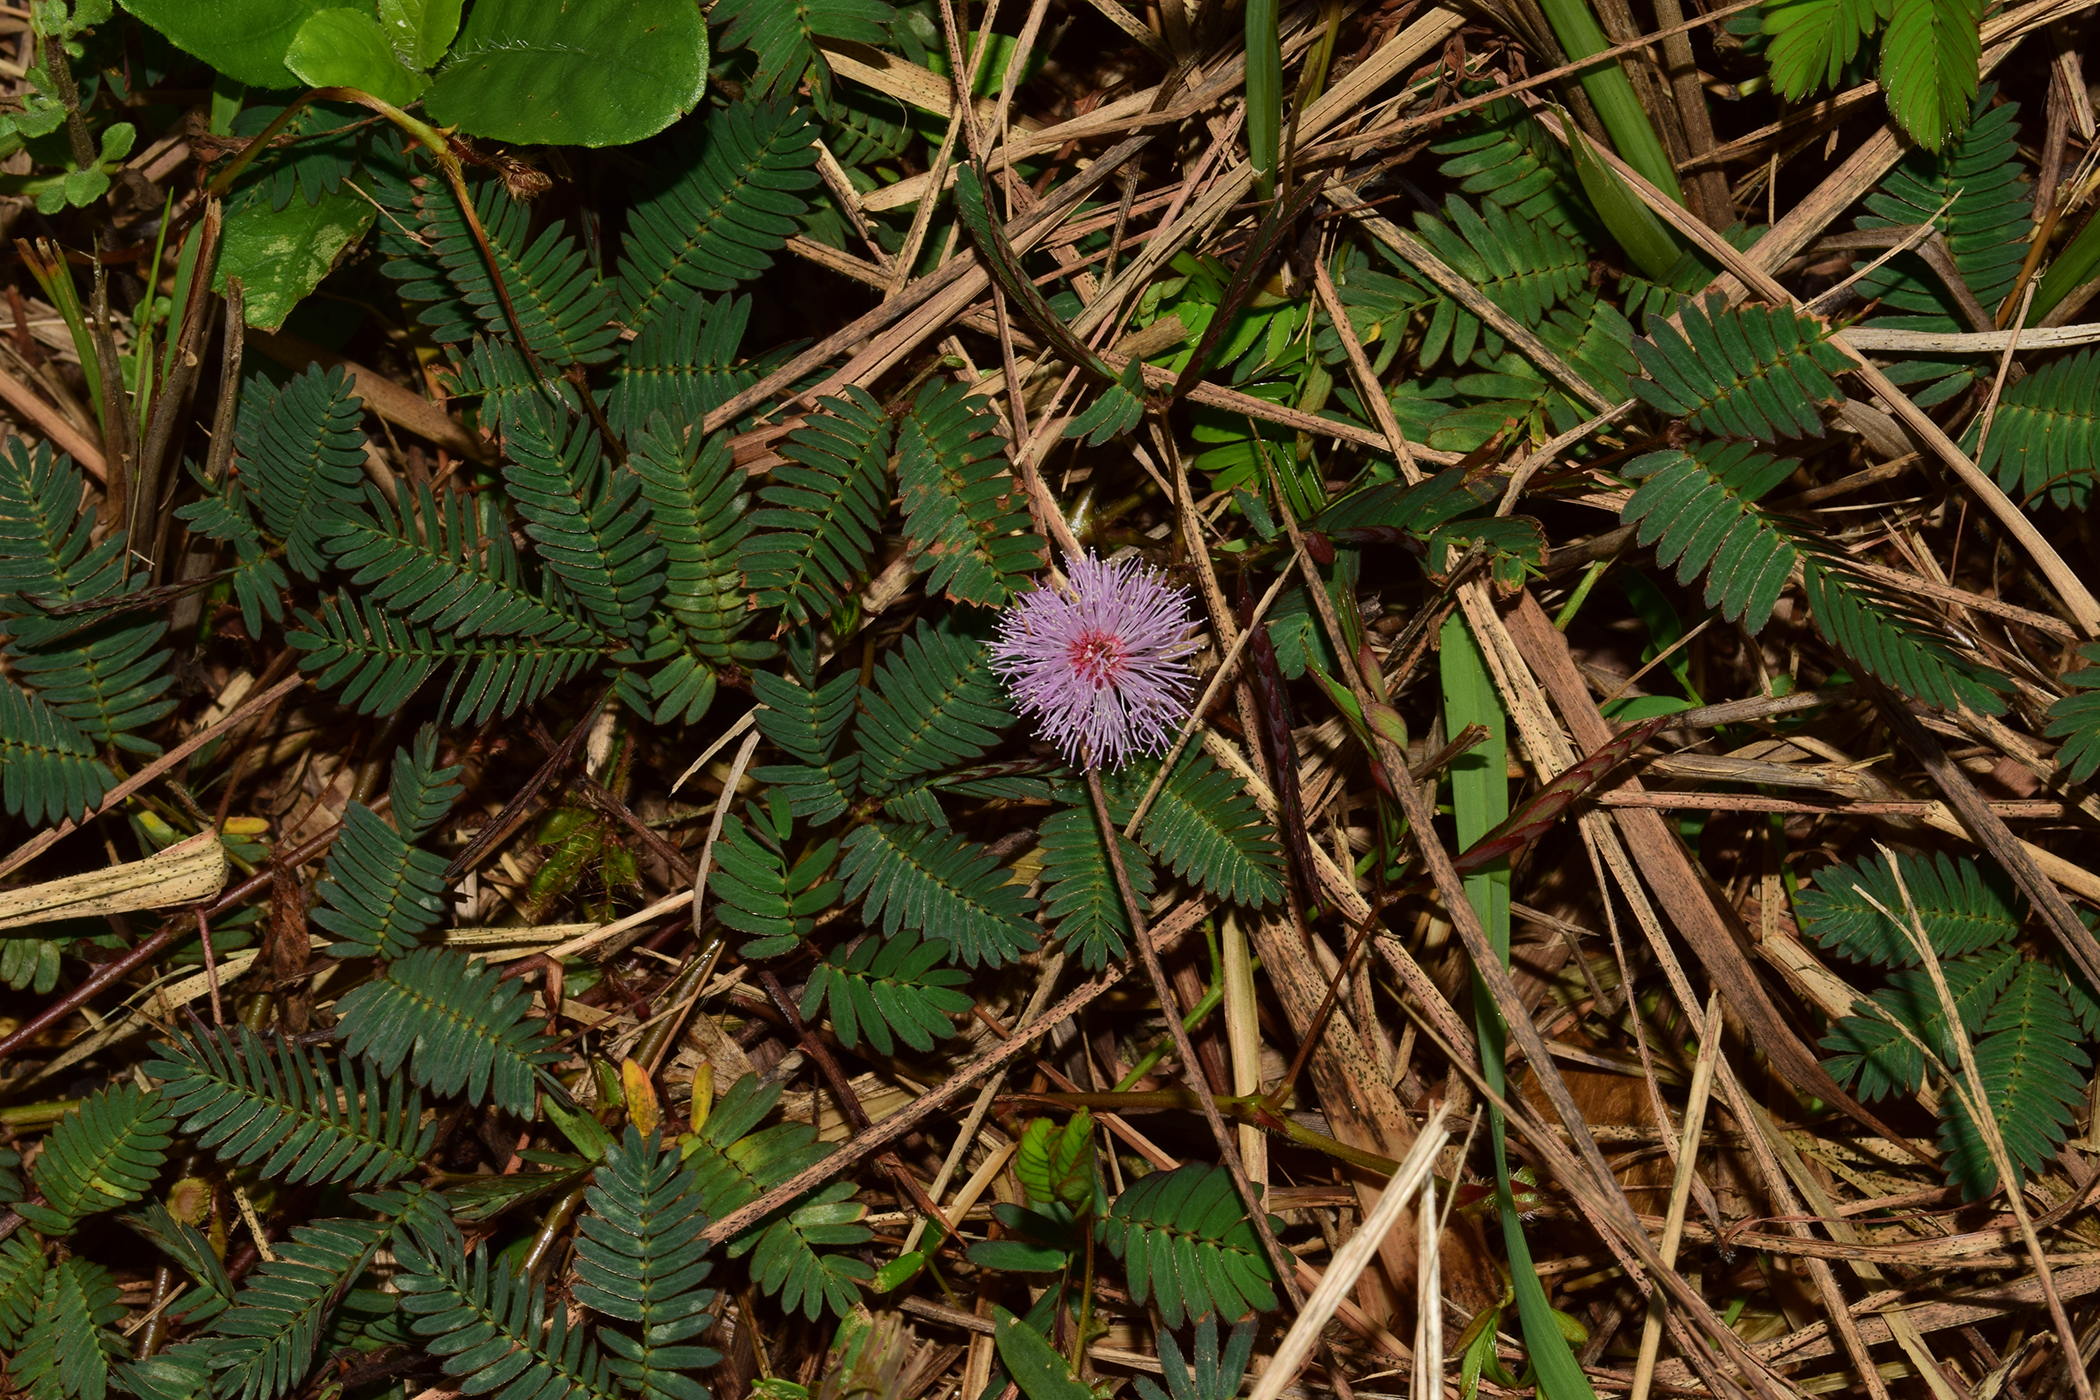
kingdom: Plantae
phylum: Tracheophyta
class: Magnoliopsida
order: Fabales
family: Fabaceae
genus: Mimosa
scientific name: Mimosa pudica
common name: Sensitive plant
